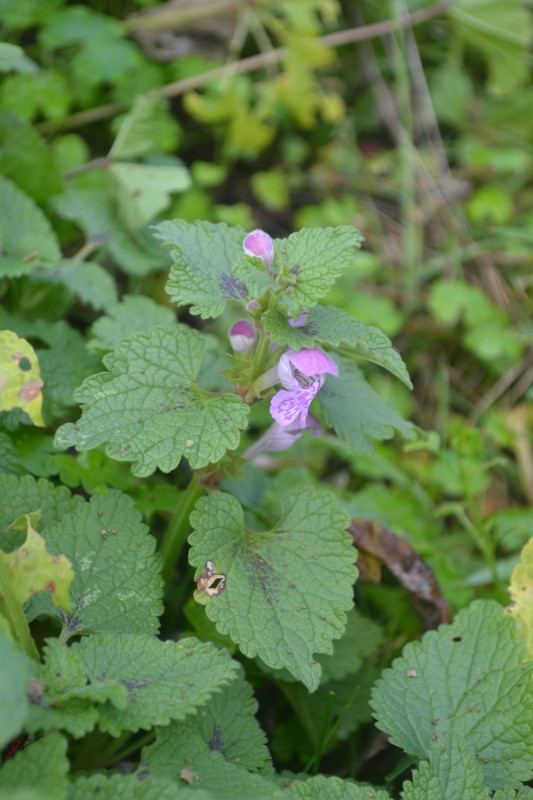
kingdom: Plantae
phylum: Tracheophyta
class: Magnoliopsida
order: Lamiales
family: Lamiaceae
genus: Lamium
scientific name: Lamium purpureum
